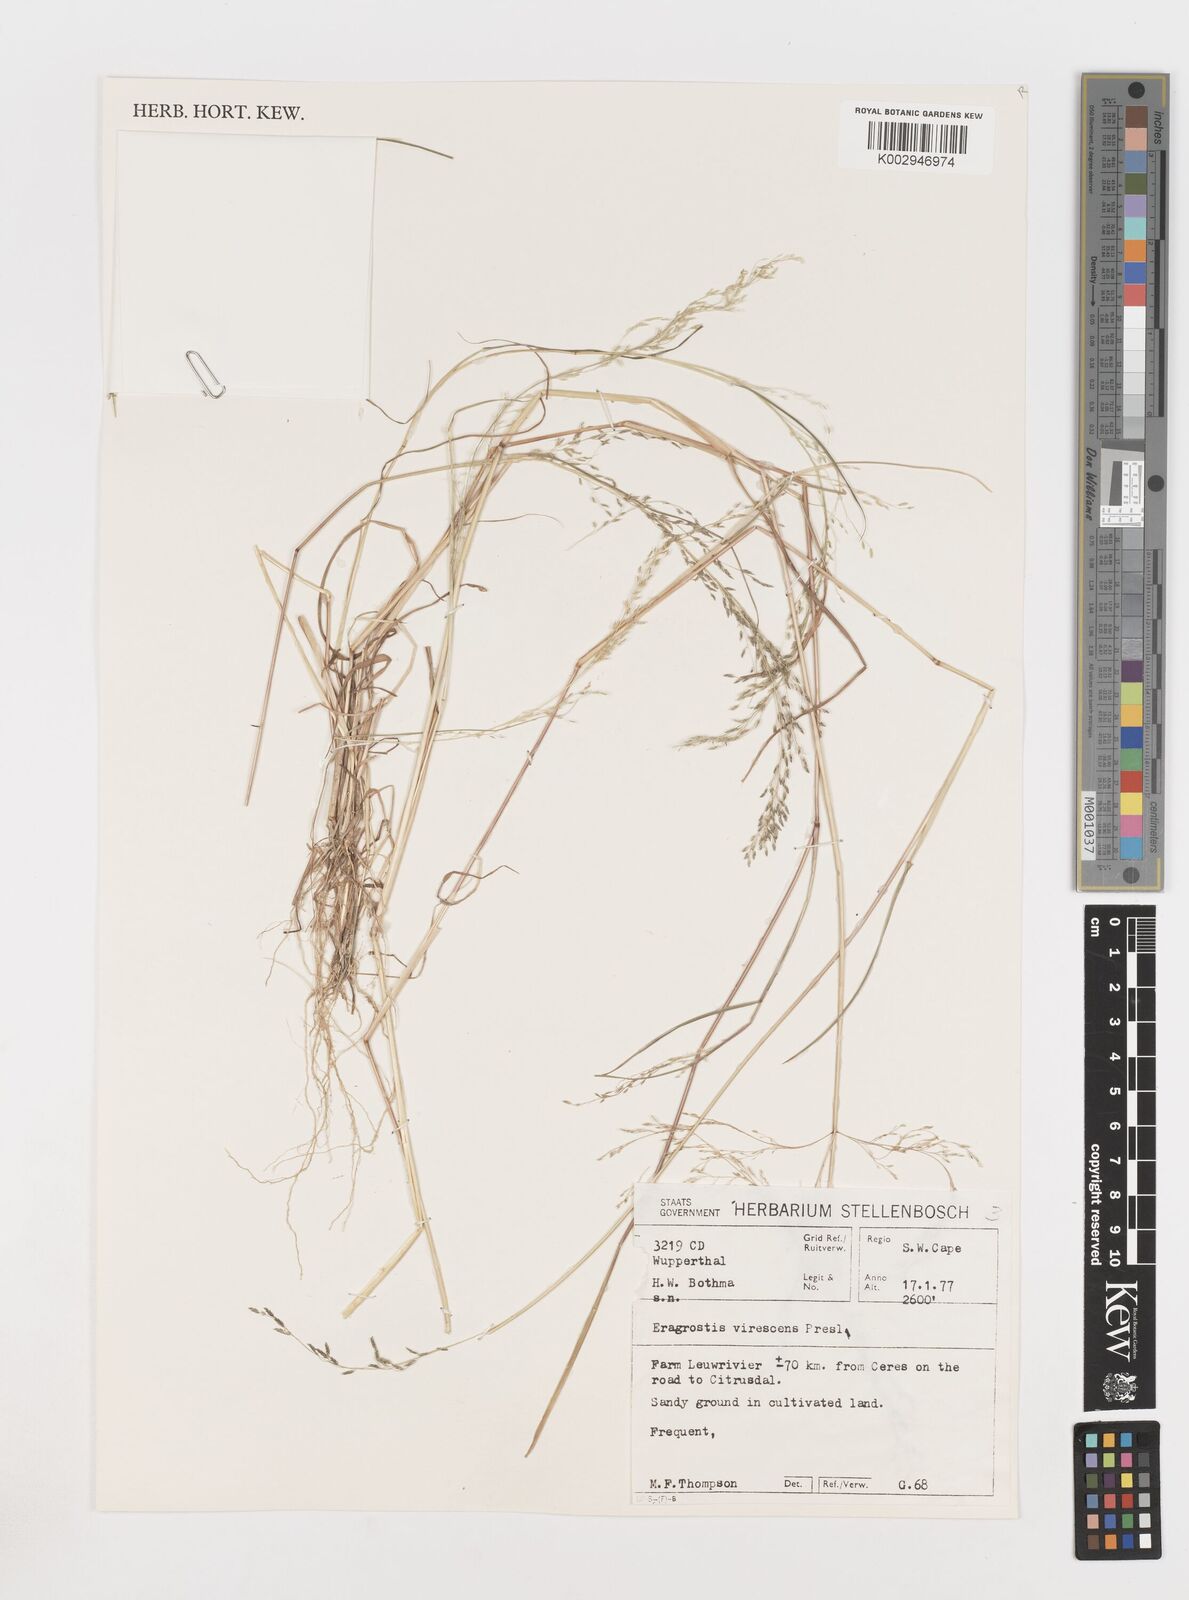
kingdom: Plantae
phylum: Tracheophyta
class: Liliopsida
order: Poales
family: Poaceae
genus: Eragrostis
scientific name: Eragrostis
